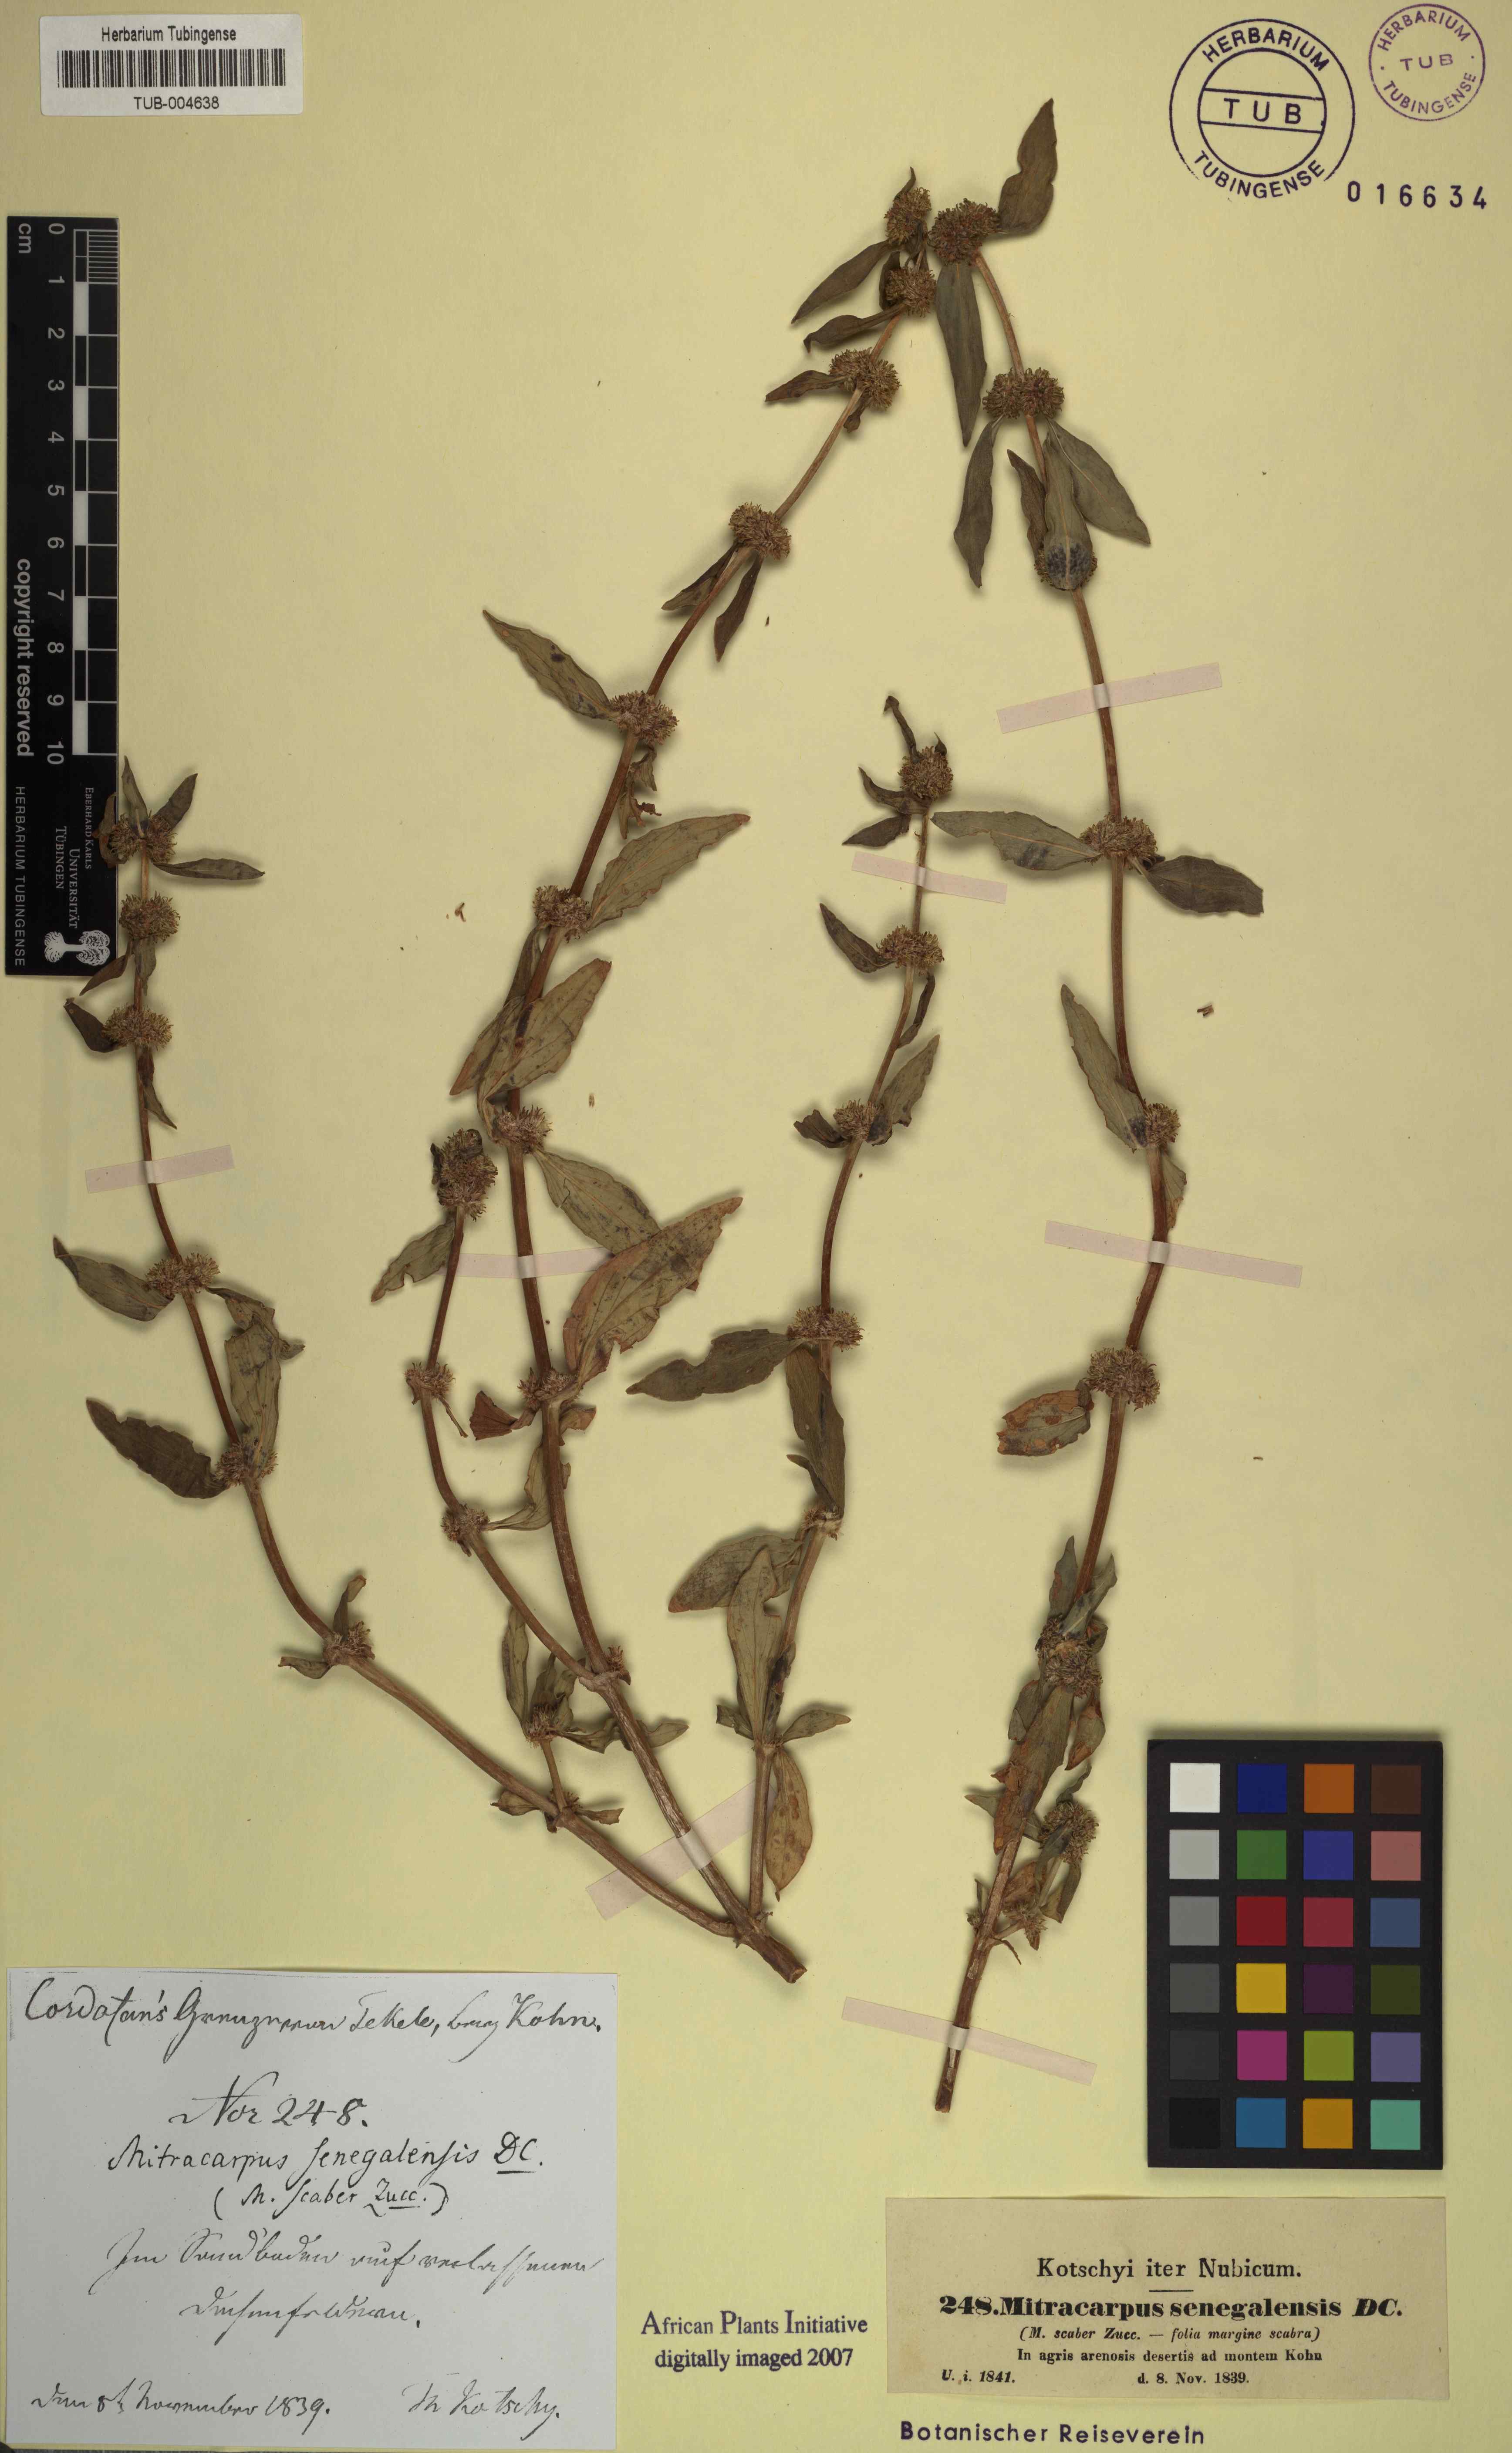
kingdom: Plantae
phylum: Tracheophyta
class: Magnoliopsida
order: Gentianales
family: Rubiaceae
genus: Mitracarpus
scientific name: Mitracarpus hirtus
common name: Tropical girdlepod
